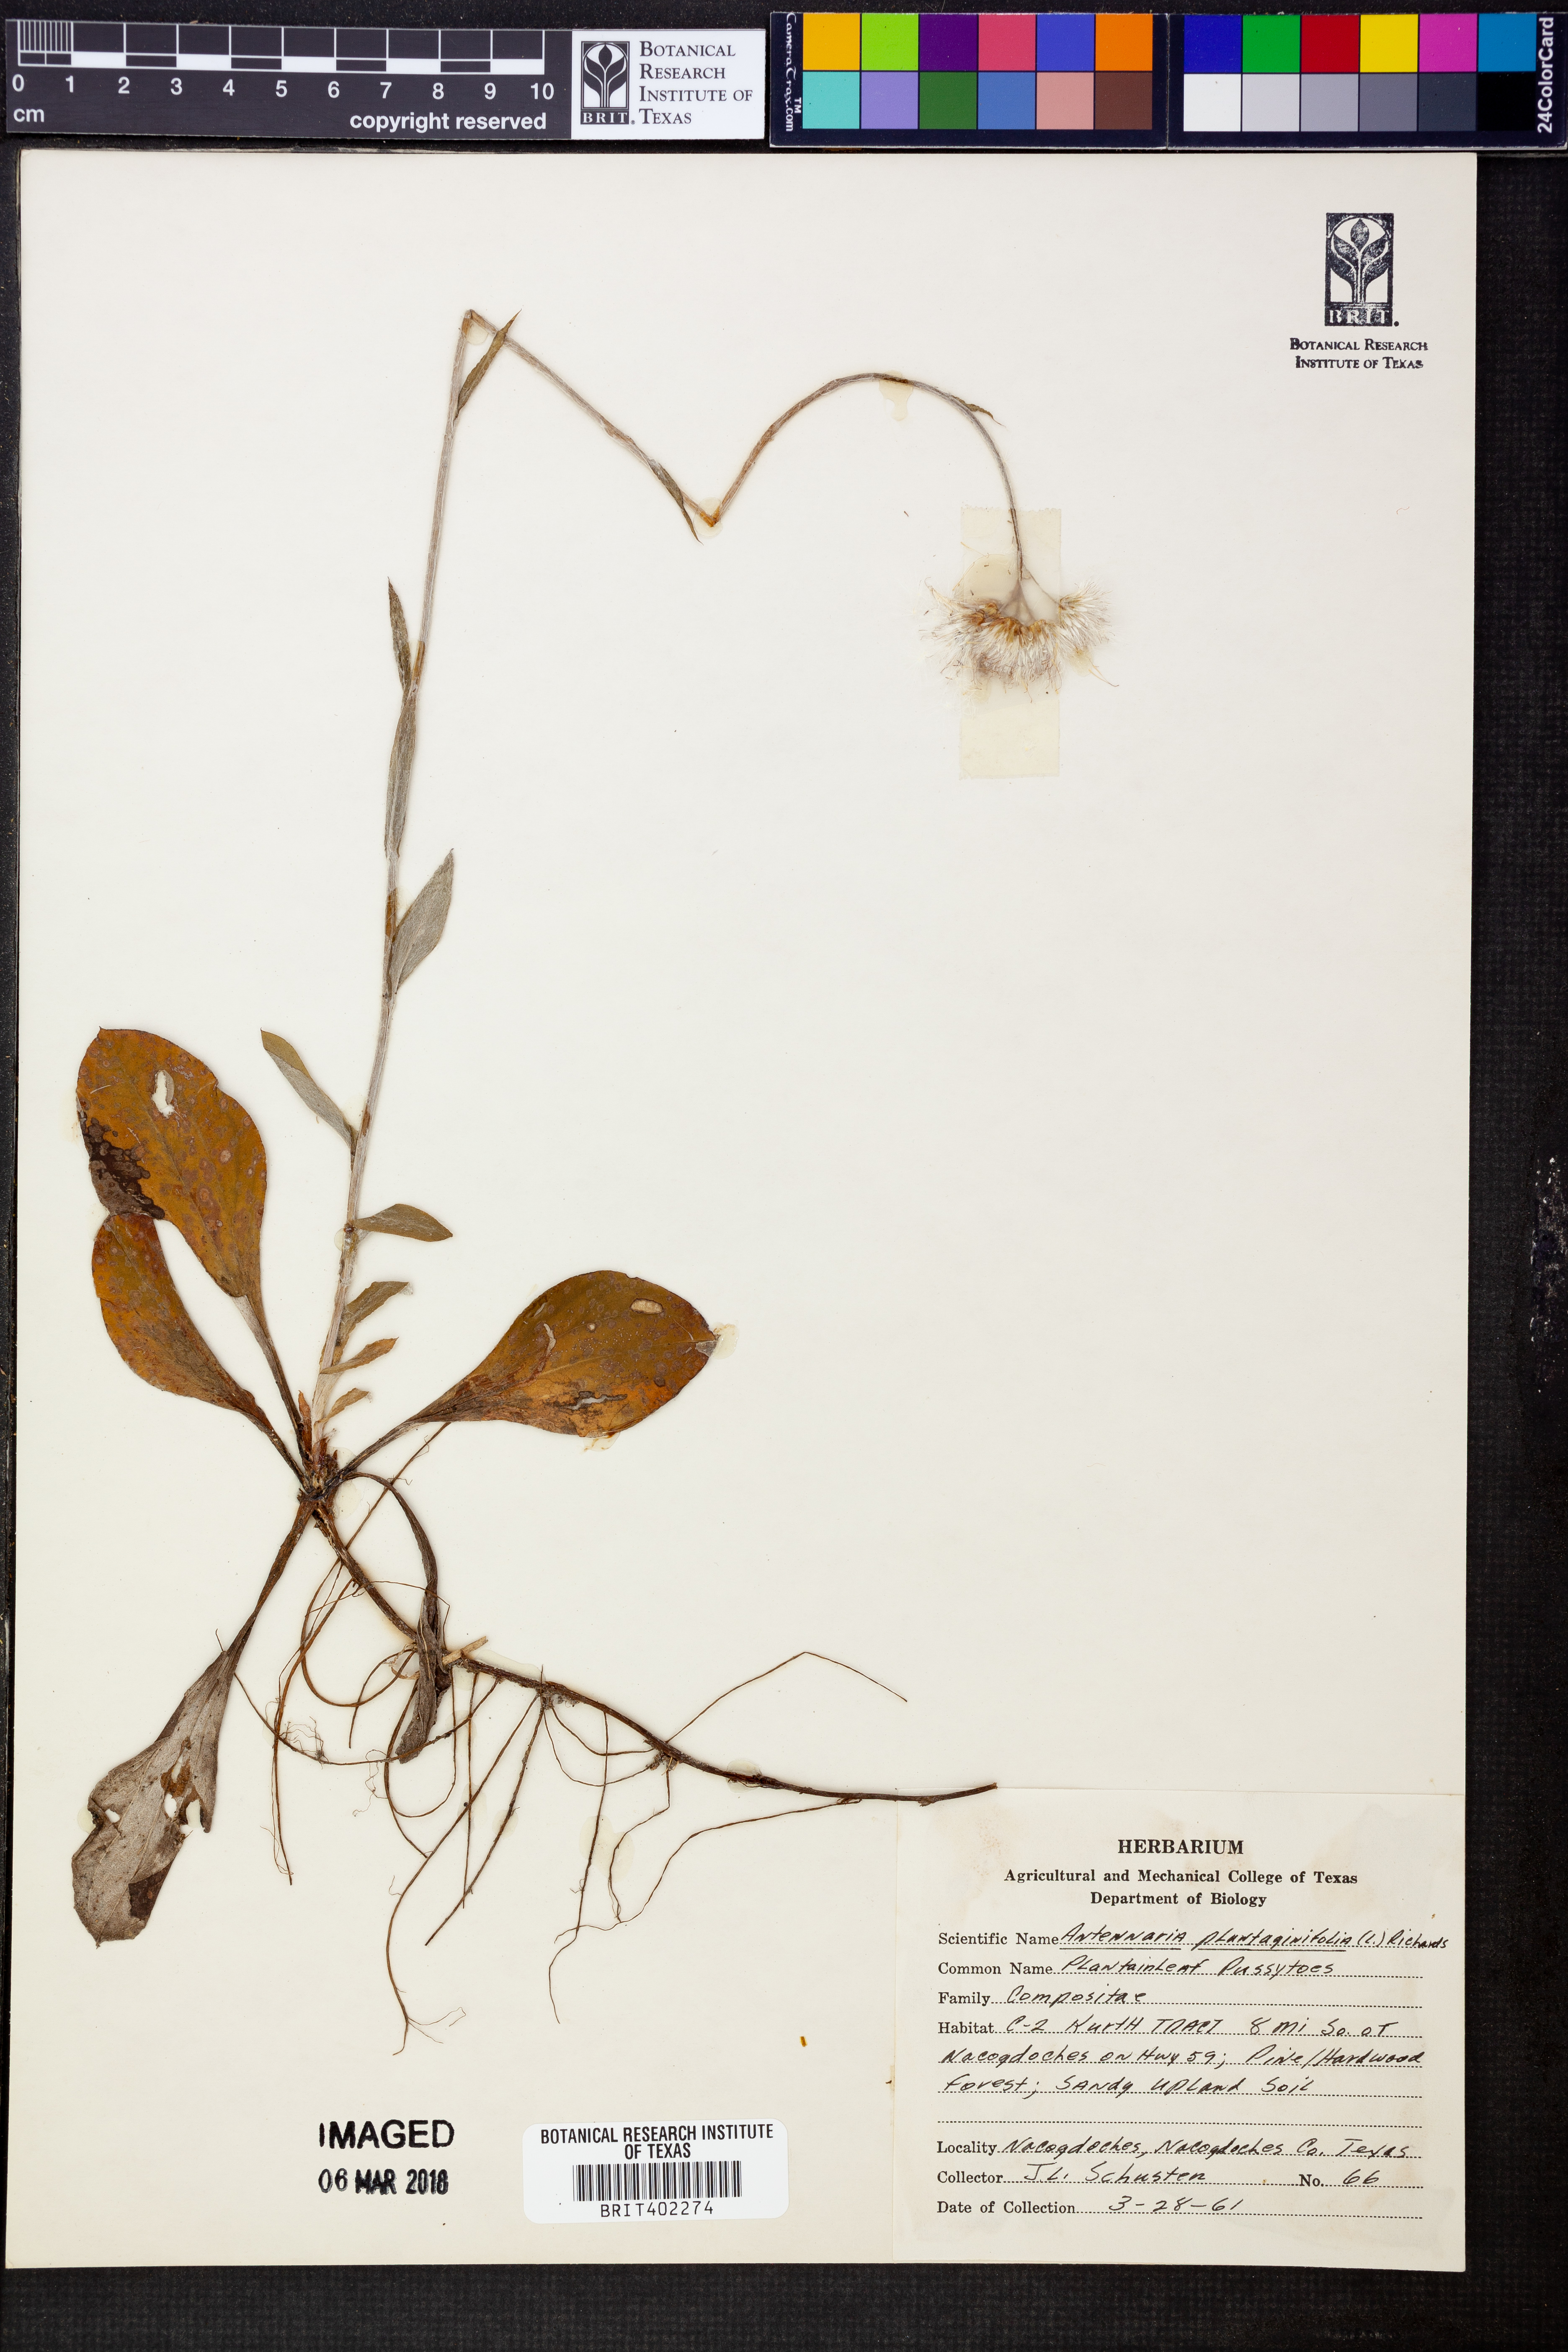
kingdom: Plantae
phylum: Tracheophyta
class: Magnoliopsida
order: Asterales
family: Asteraceae
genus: Antennaria
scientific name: Antennaria plantaginifolia
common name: Plantain-leaved pussytoes
